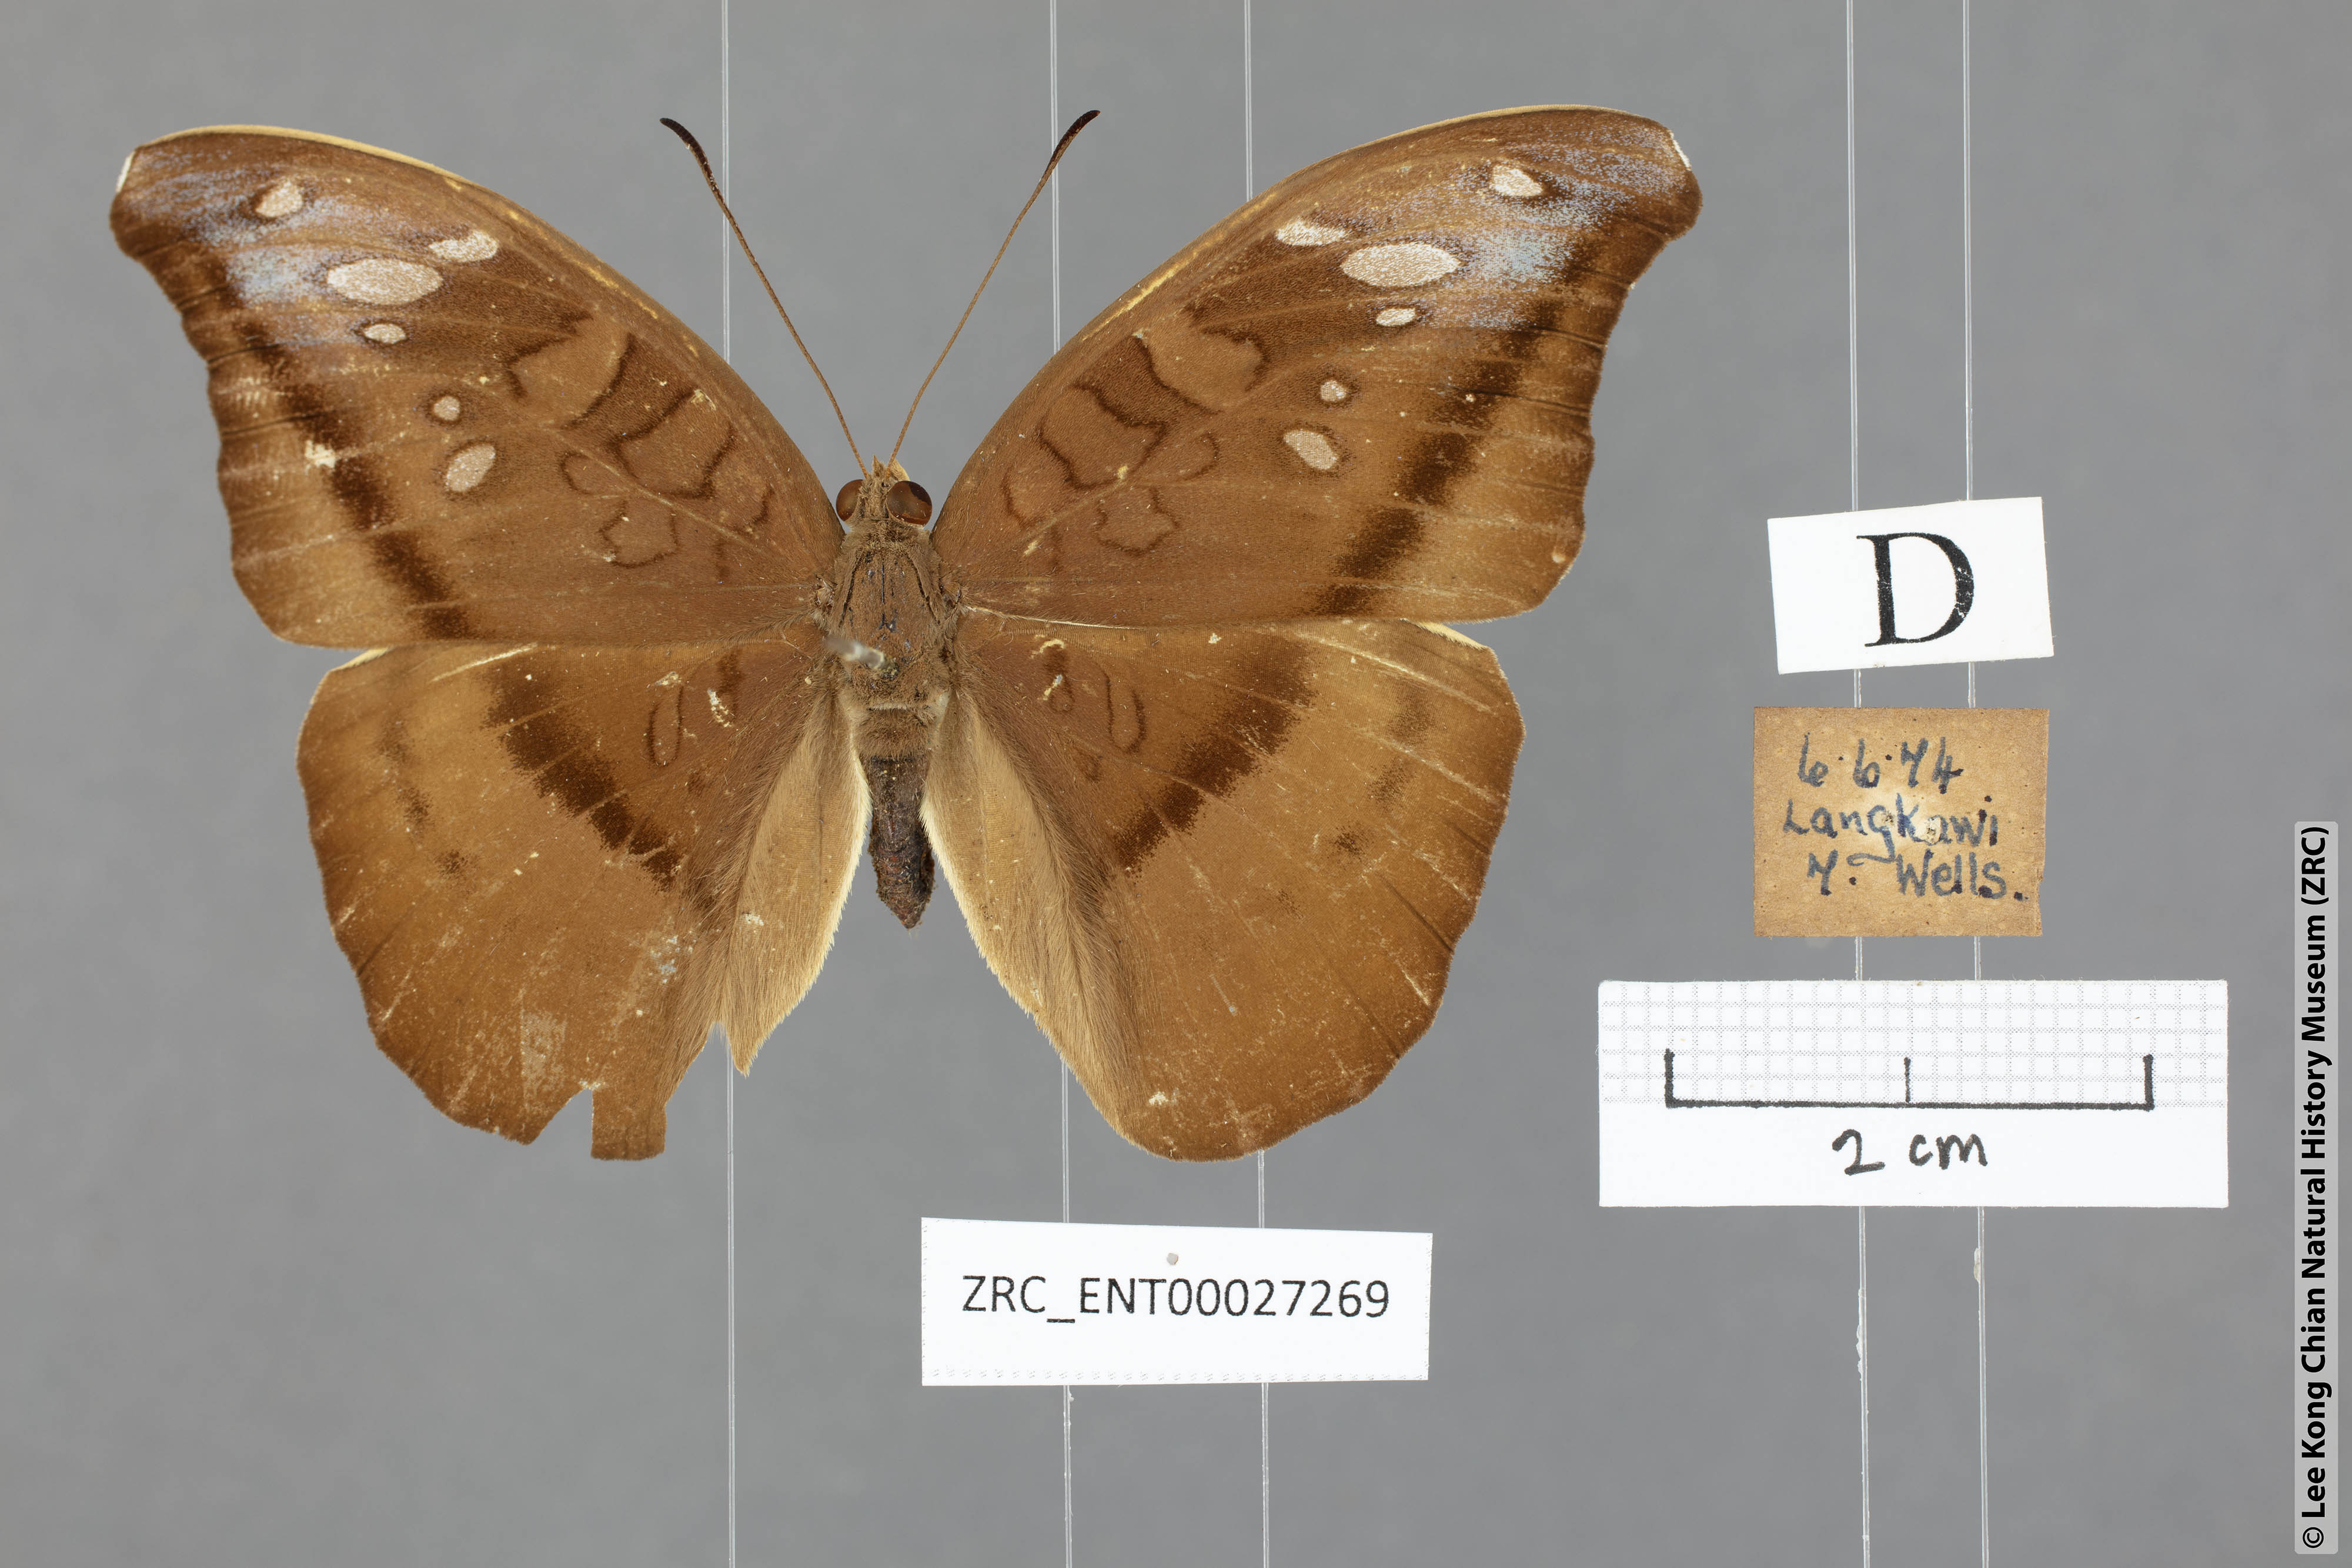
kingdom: Animalia
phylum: Arthropoda
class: Insecta
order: Lepidoptera
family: Nymphalidae
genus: Tanaecia
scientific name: Tanaecia cocytus
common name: Lavender count
